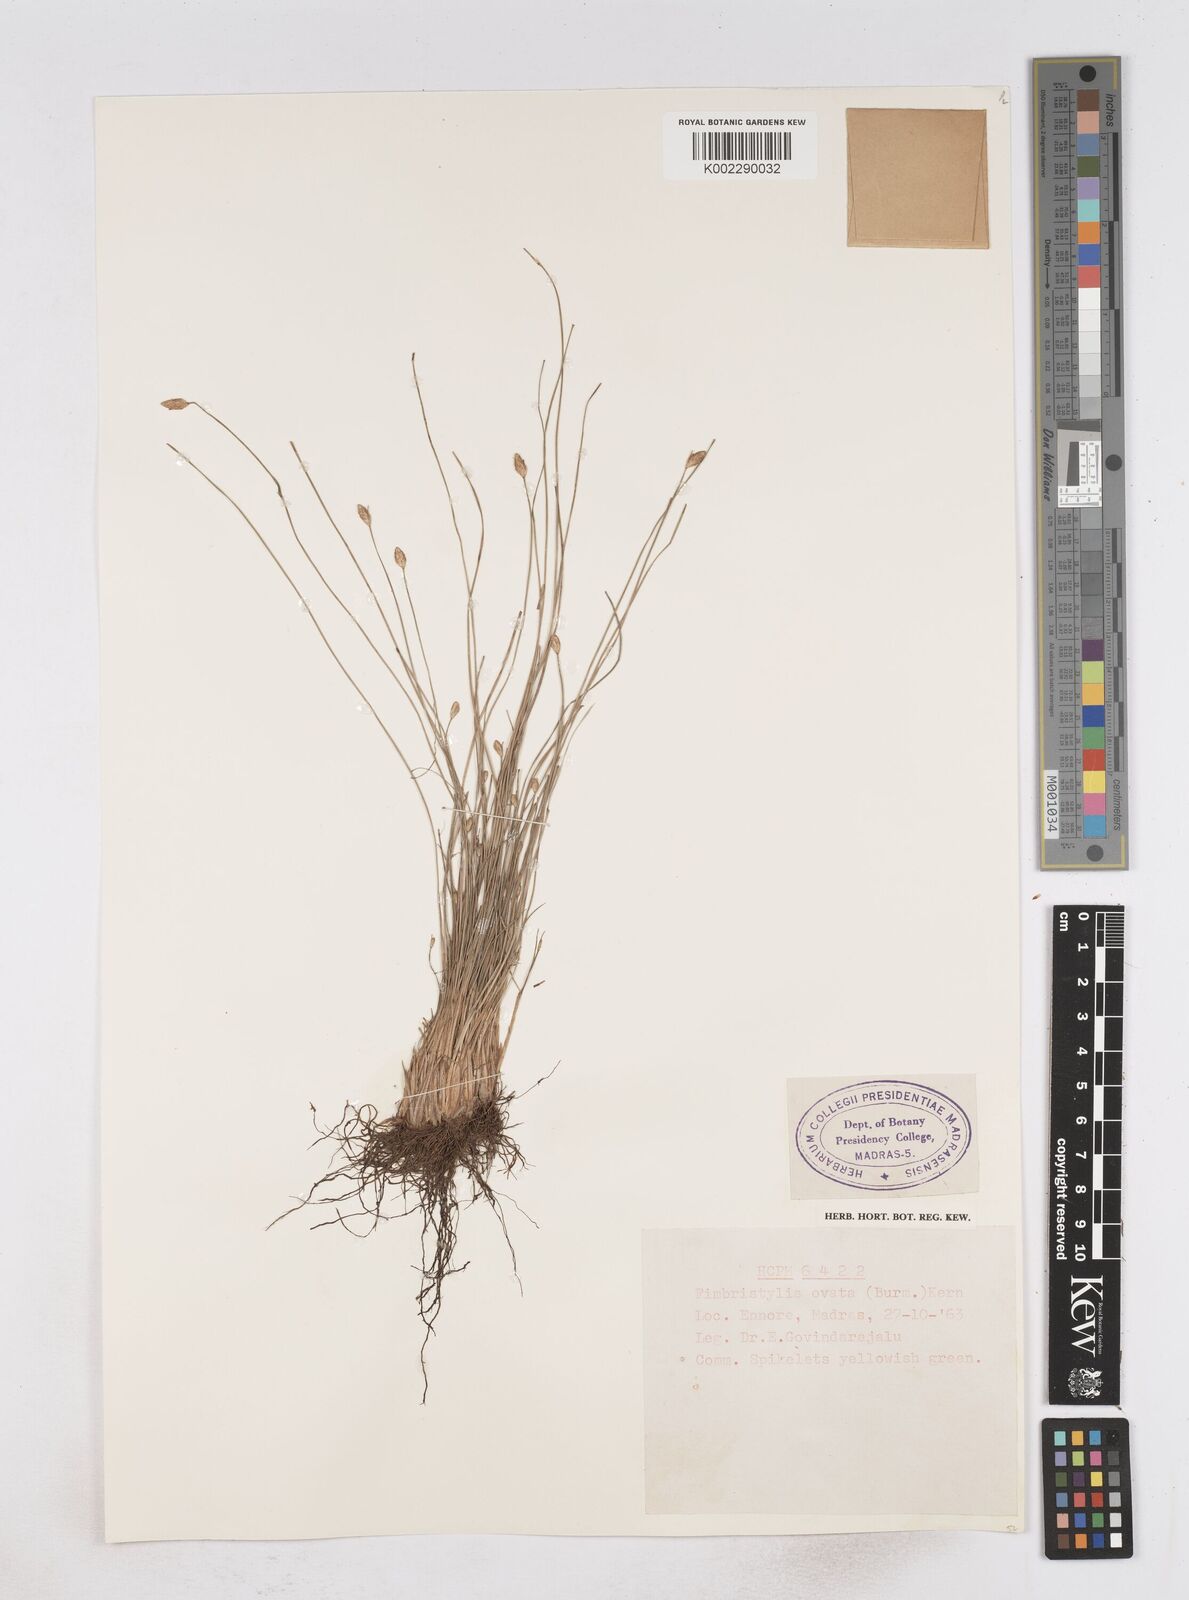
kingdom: Plantae
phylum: Tracheophyta
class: Liliopsida
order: Poales
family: Cyperaceae
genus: Abildgaardia
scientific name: Abildgaardia ovata
